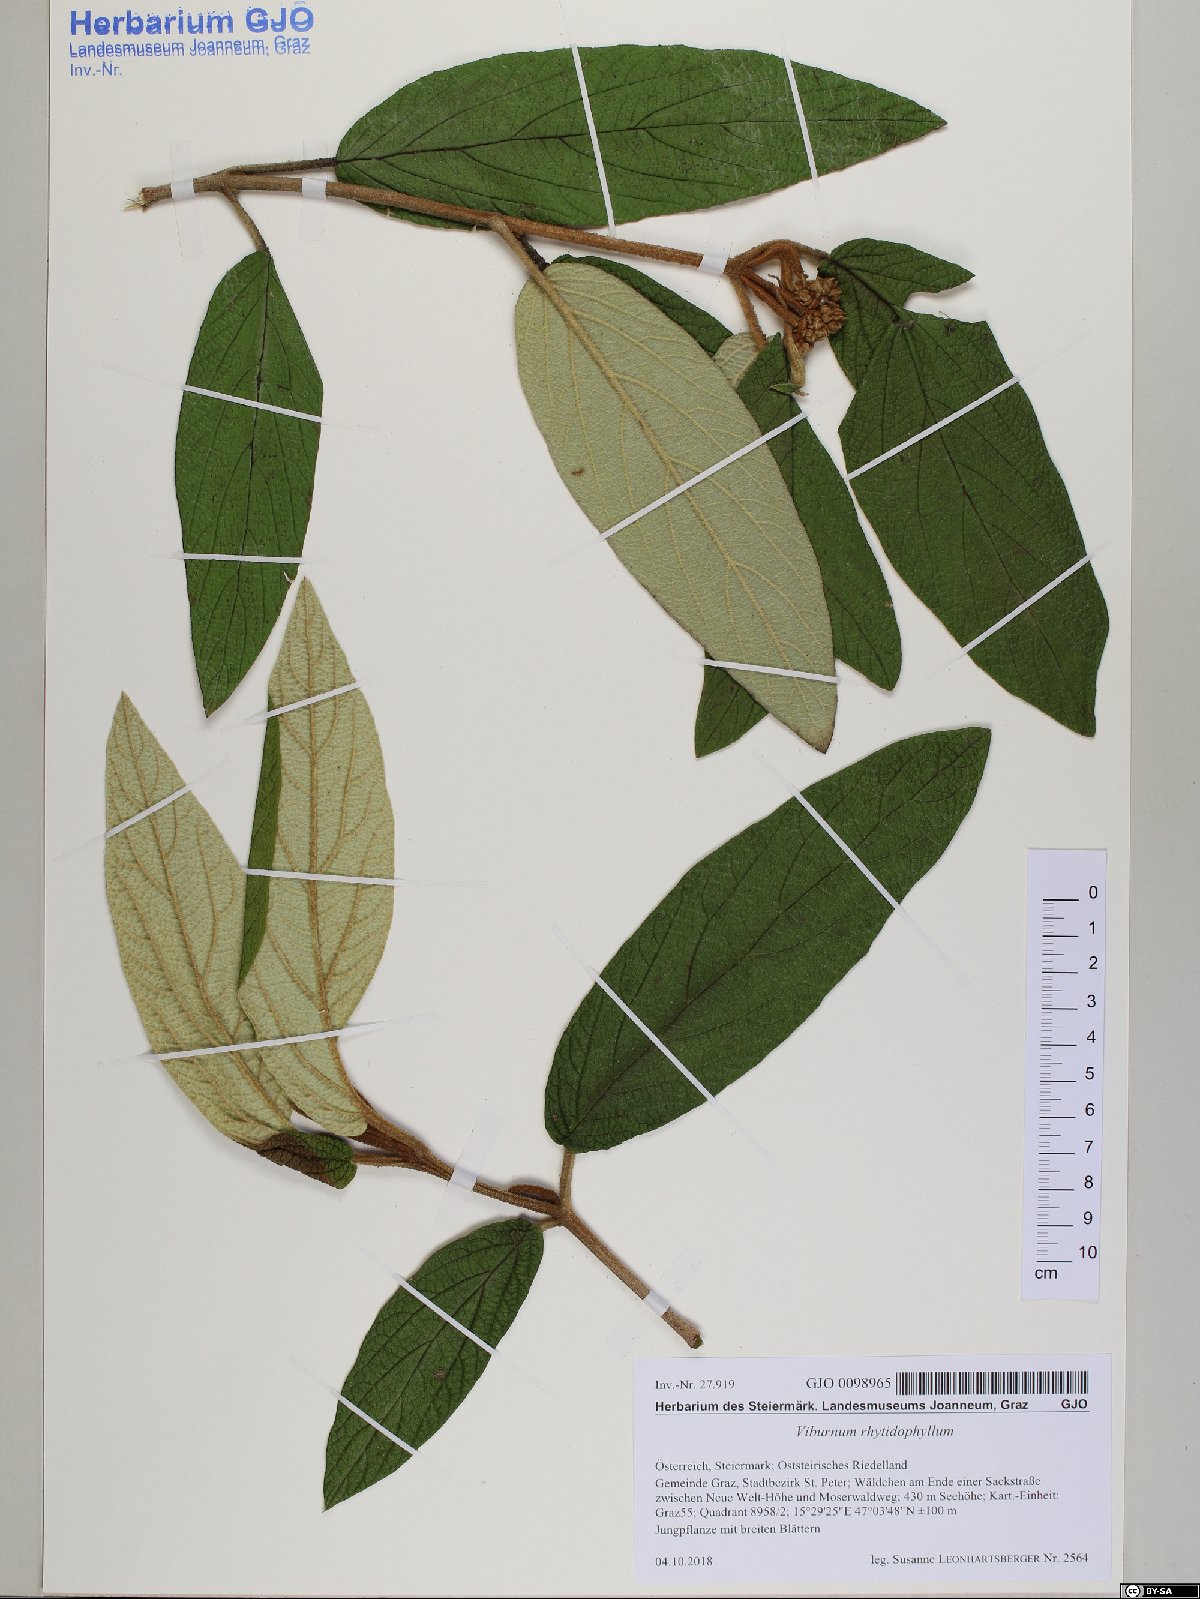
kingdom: Plantae
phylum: Tracheophyta
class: Magnoliopsida
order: Dipsacales
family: Viburnaceae
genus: Viburnum
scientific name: Viburnum rhytidophyllum
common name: Wrinkled viburnum
